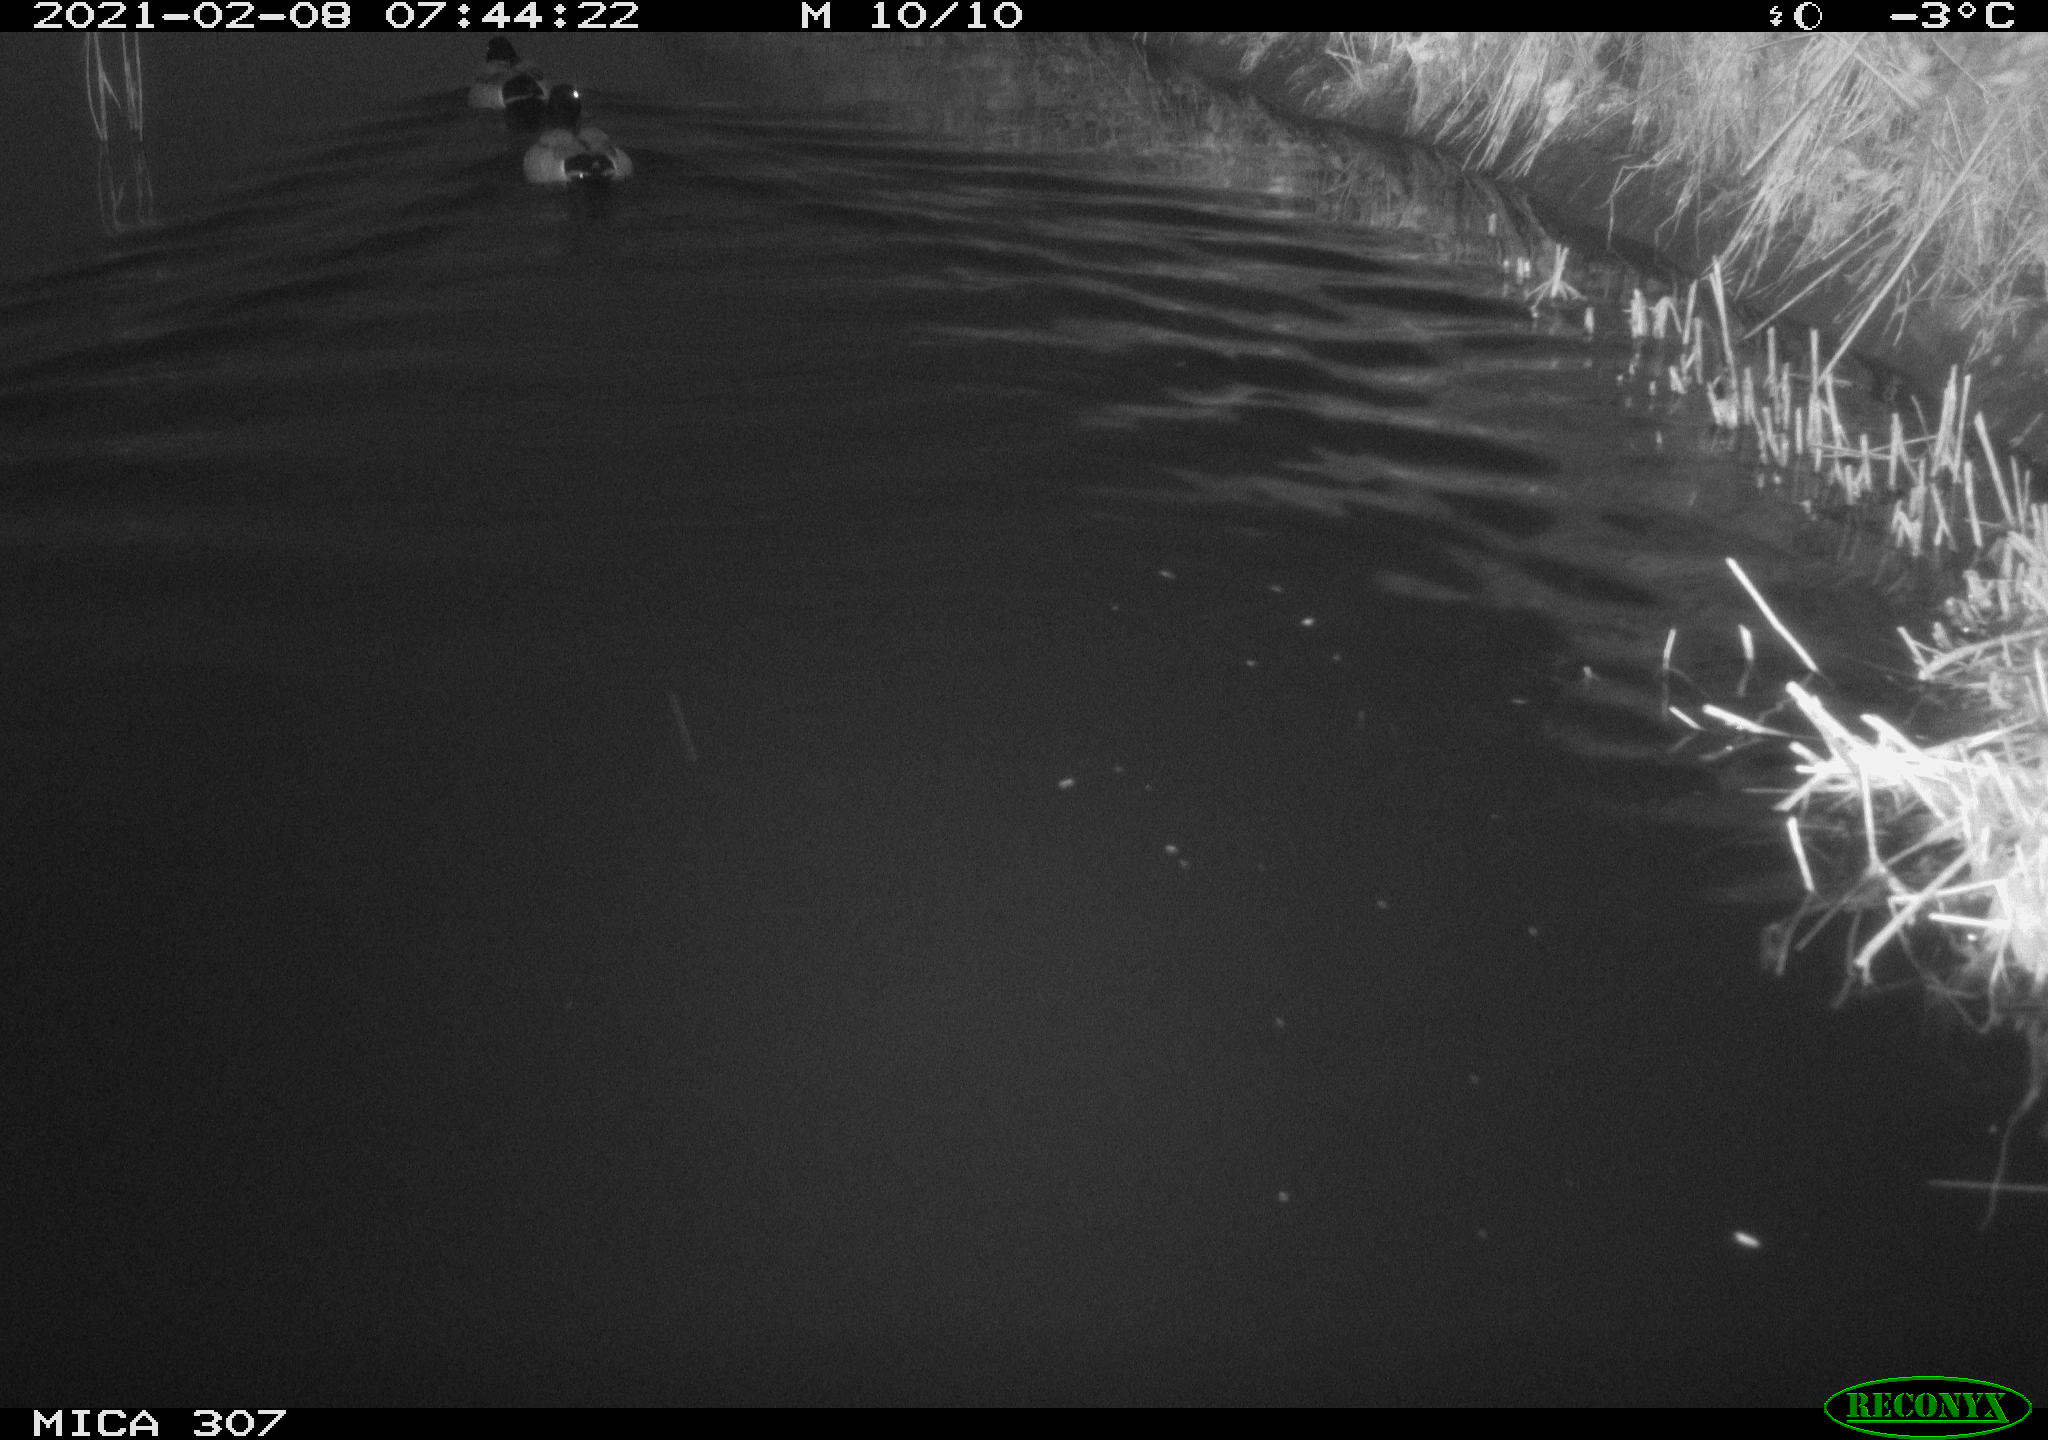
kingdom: Animalia
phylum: Chordata
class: Aves
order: Anseriformes
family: Anatidae
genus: Anas
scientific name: Anas platyrhynchos
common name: Mallard
